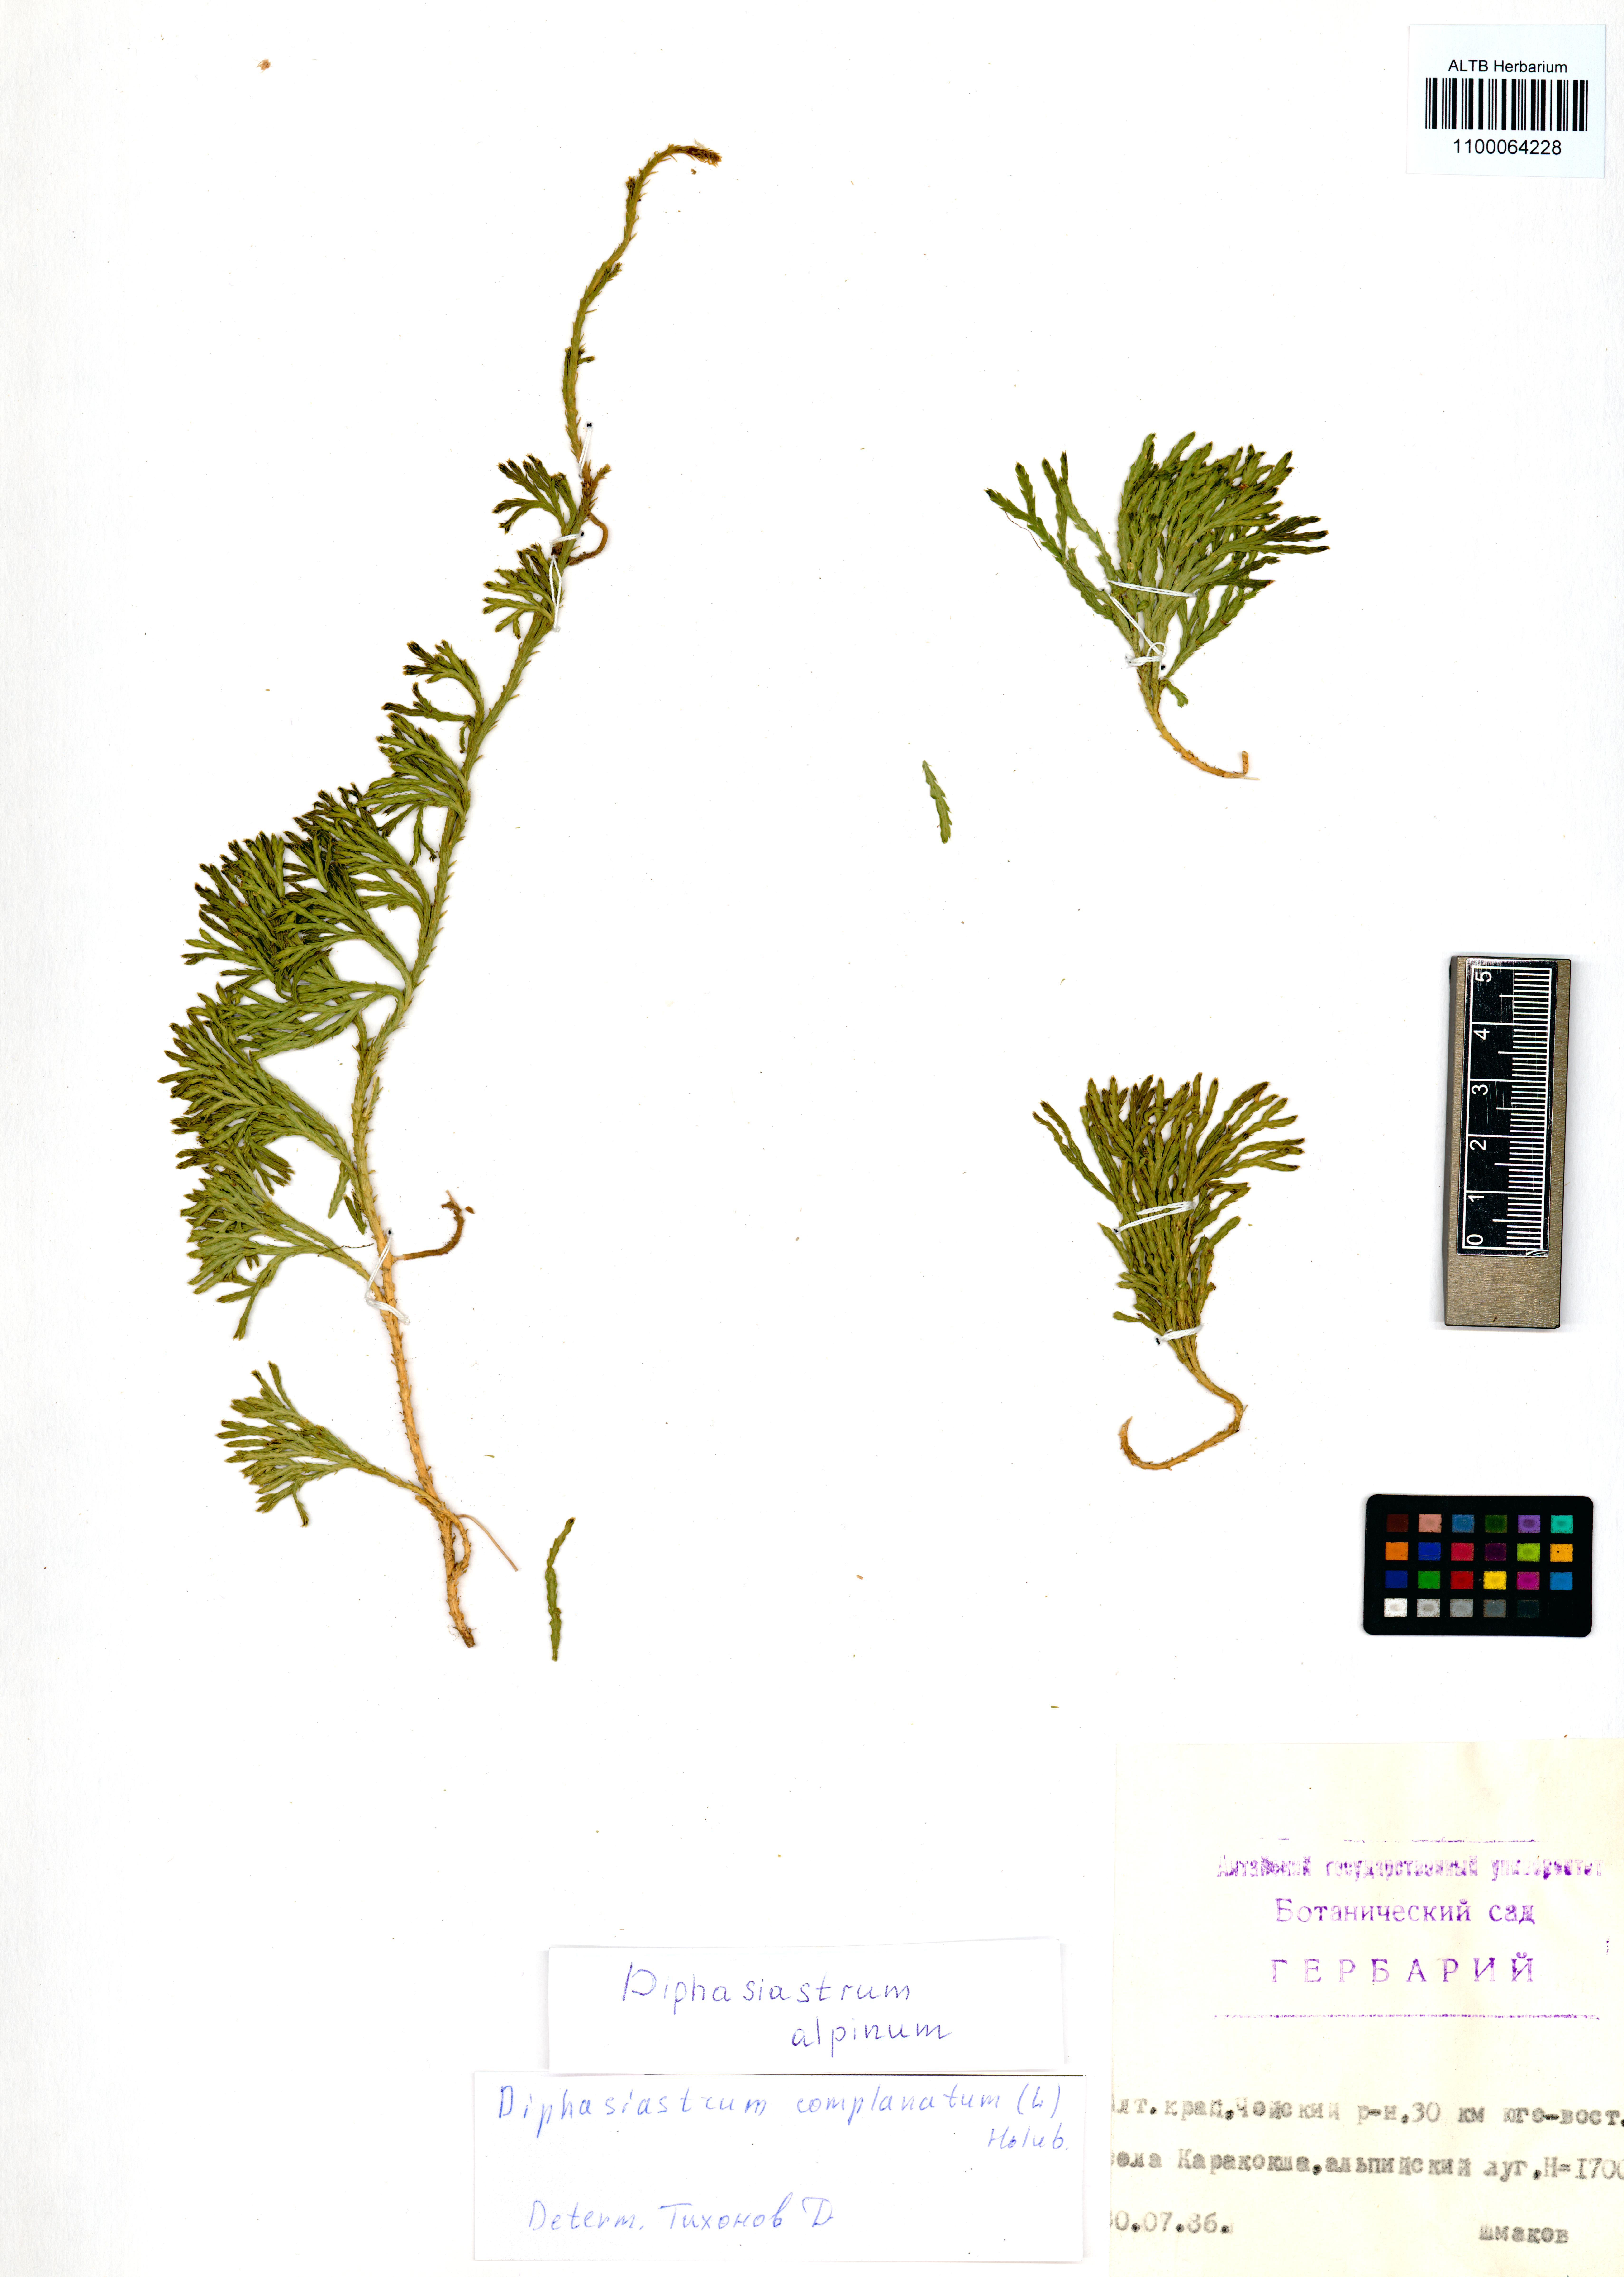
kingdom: Plantae
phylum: Tracheophyta
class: Lycopodiopsida
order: Lycopodiales
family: Lycopodiaceae
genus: Diphasiastrum
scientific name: Diphasiastrum alpinum
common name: Alpine clubmoss
